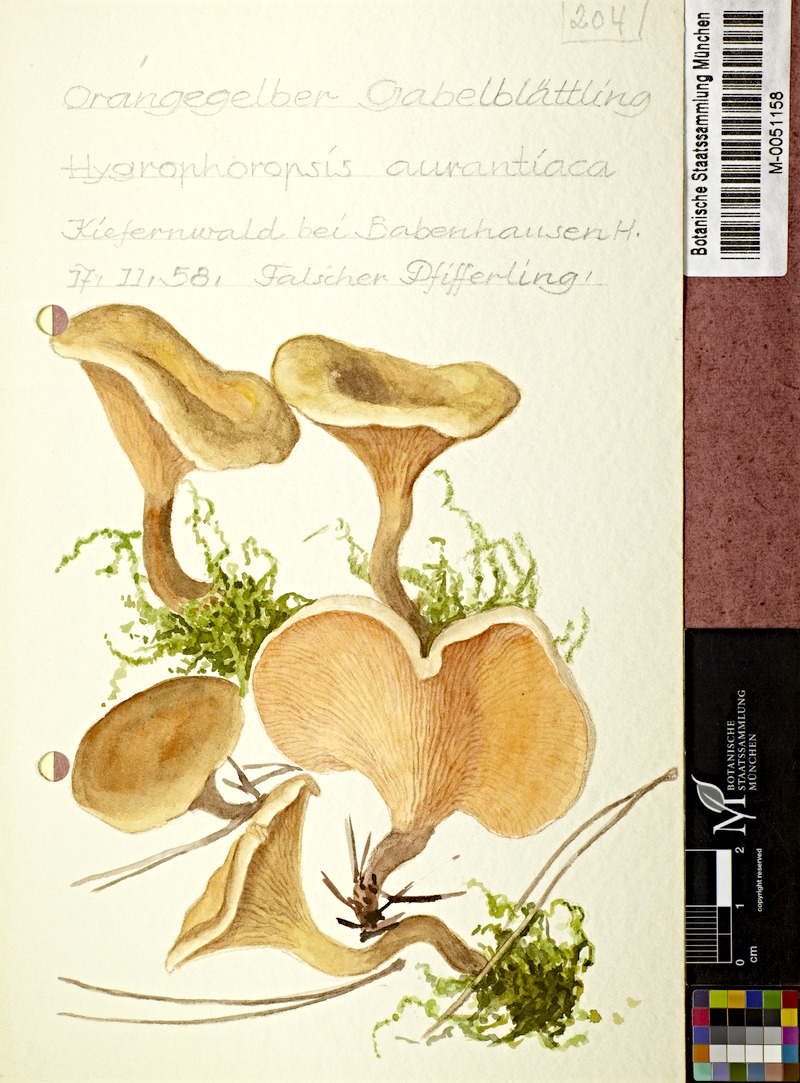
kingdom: Fungi
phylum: Basidiomycota
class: Agaricomycetes
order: Boletales
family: Hygrophoropsidaceae
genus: Hygrophoropsis
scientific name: Hygrophoropsis aurantiaca
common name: False chanterelle
